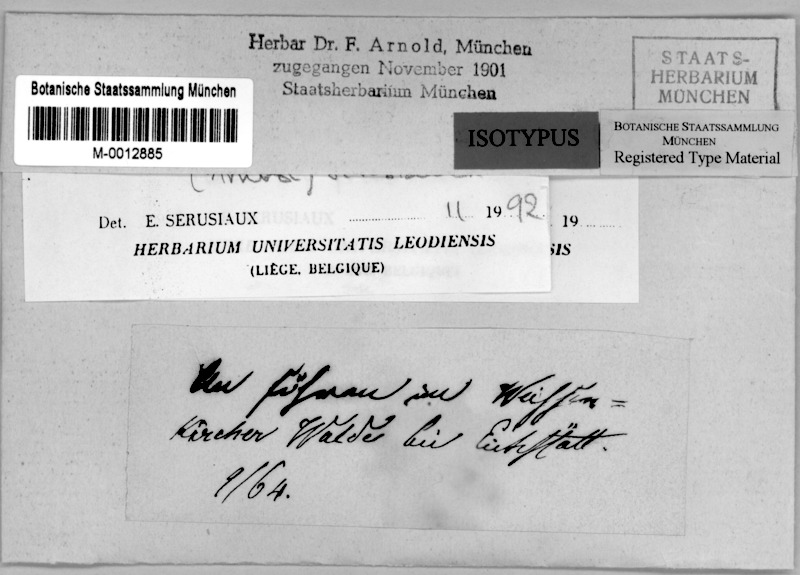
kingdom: Fungi
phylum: Ascomycota
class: Lecanoromycetes
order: Lecanorales
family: Byssolomataceae
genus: Byssoloma
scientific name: Byssoloma marginatum
